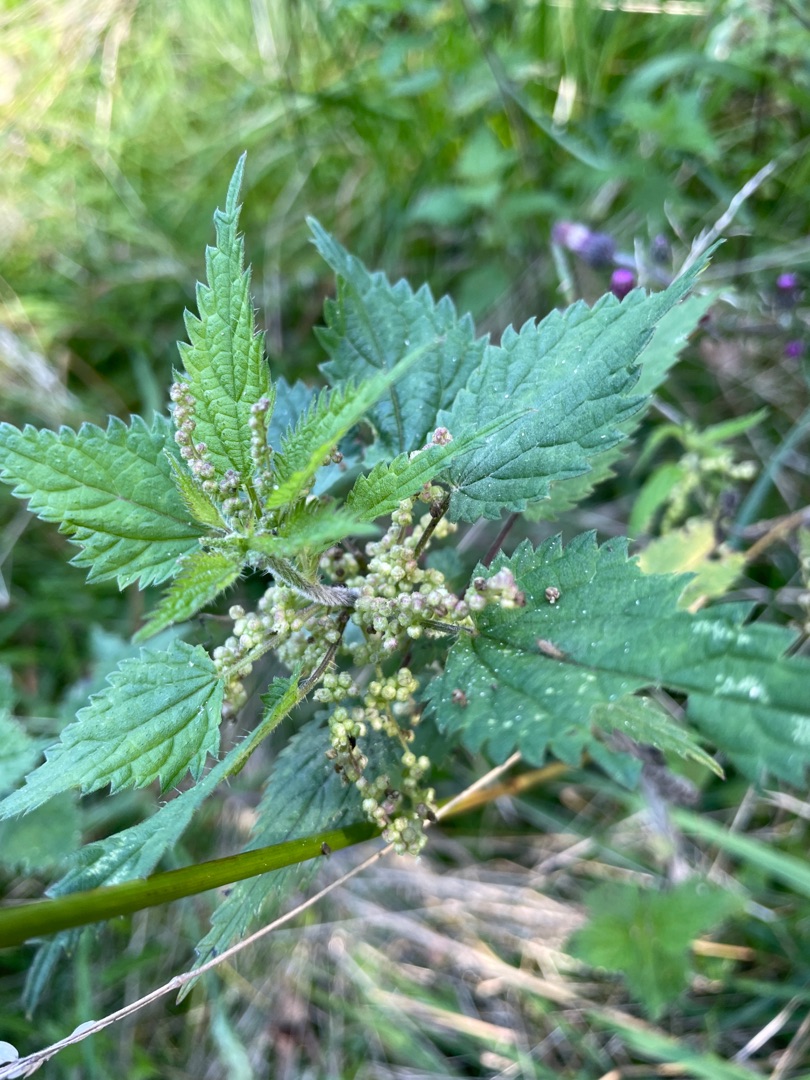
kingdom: Plantae
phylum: Tracheophyta
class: Magnoliopsida
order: Rosales
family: Urticaceae
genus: Urtica
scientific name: Urtica dioica
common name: Stor nælde
